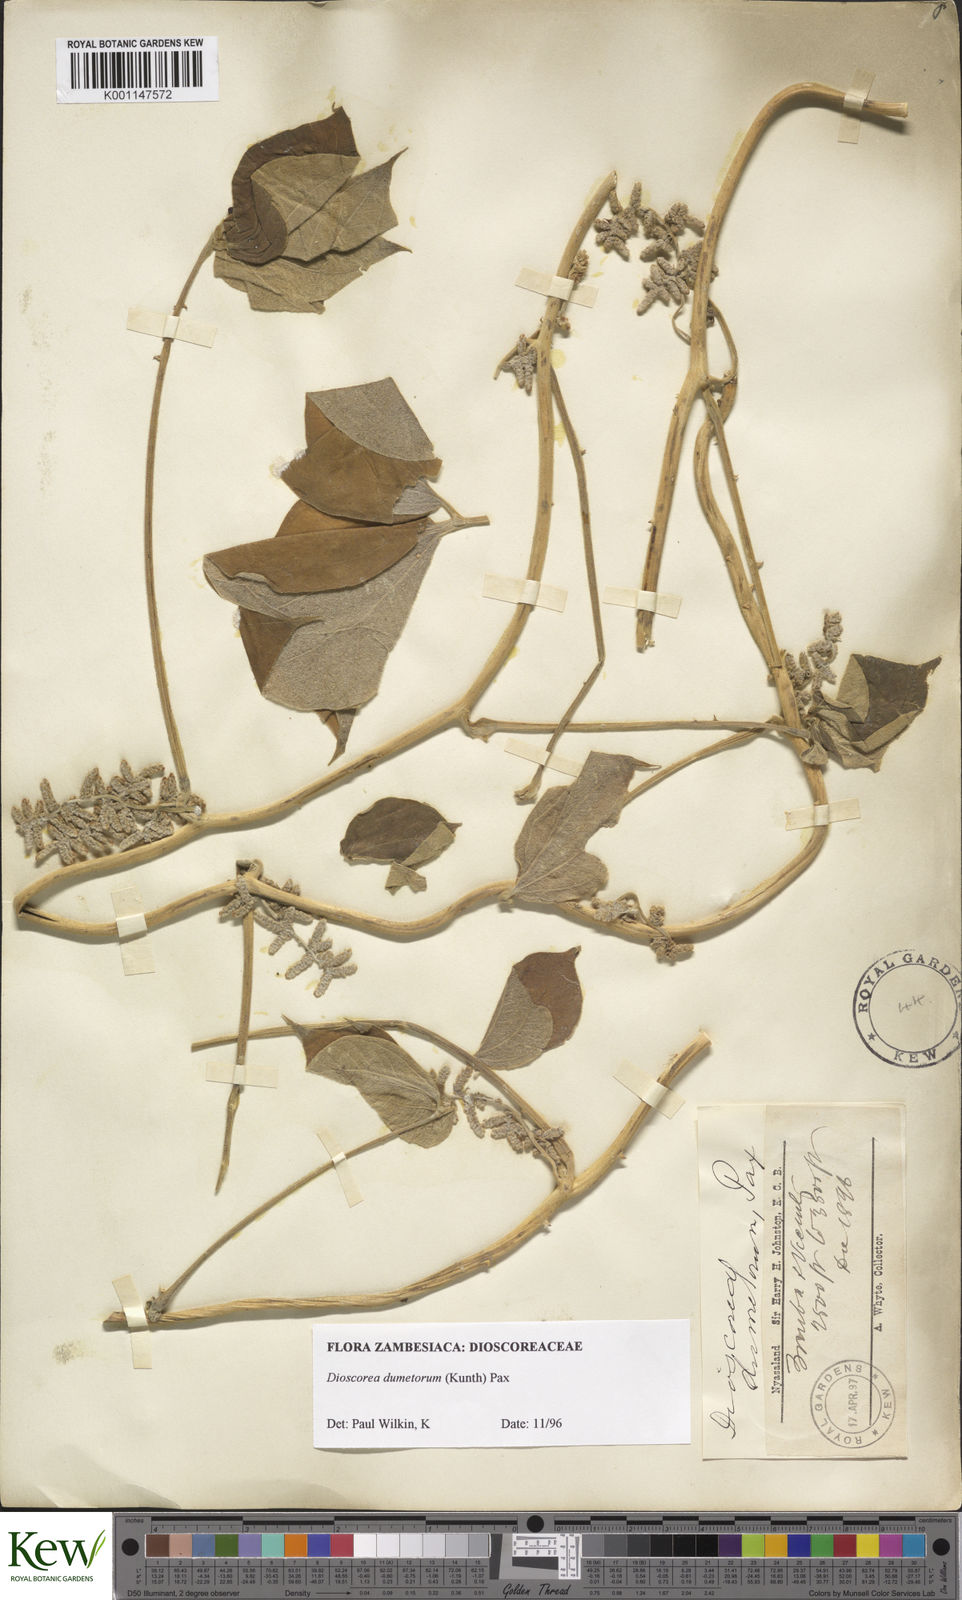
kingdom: Plantae
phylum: Tracheophyta
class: Liliopsida
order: Dioscoreales
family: Dioscoreaceae
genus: Dioscorea
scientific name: Dioscorea dumetorum
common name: African bitter yam
